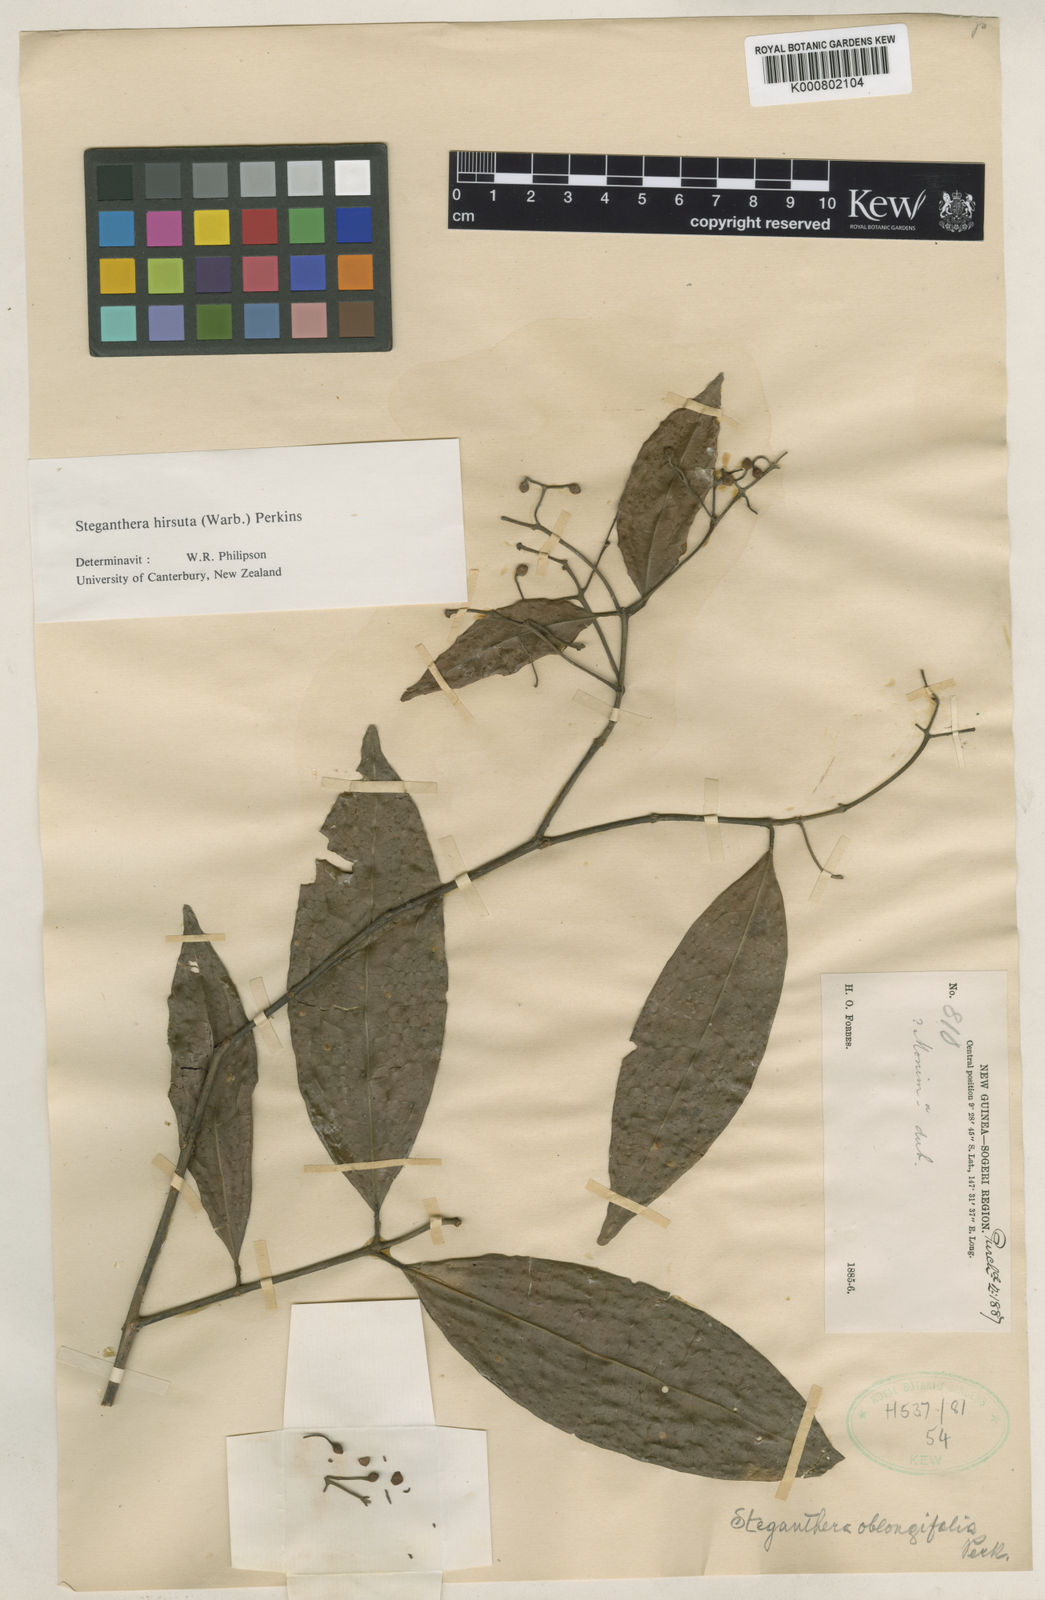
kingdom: Plantae
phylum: Tracheophyta
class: Magnoliopsida
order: Laurales
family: Monimiaceae
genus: Steganthera
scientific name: Steganthera hirsuta
